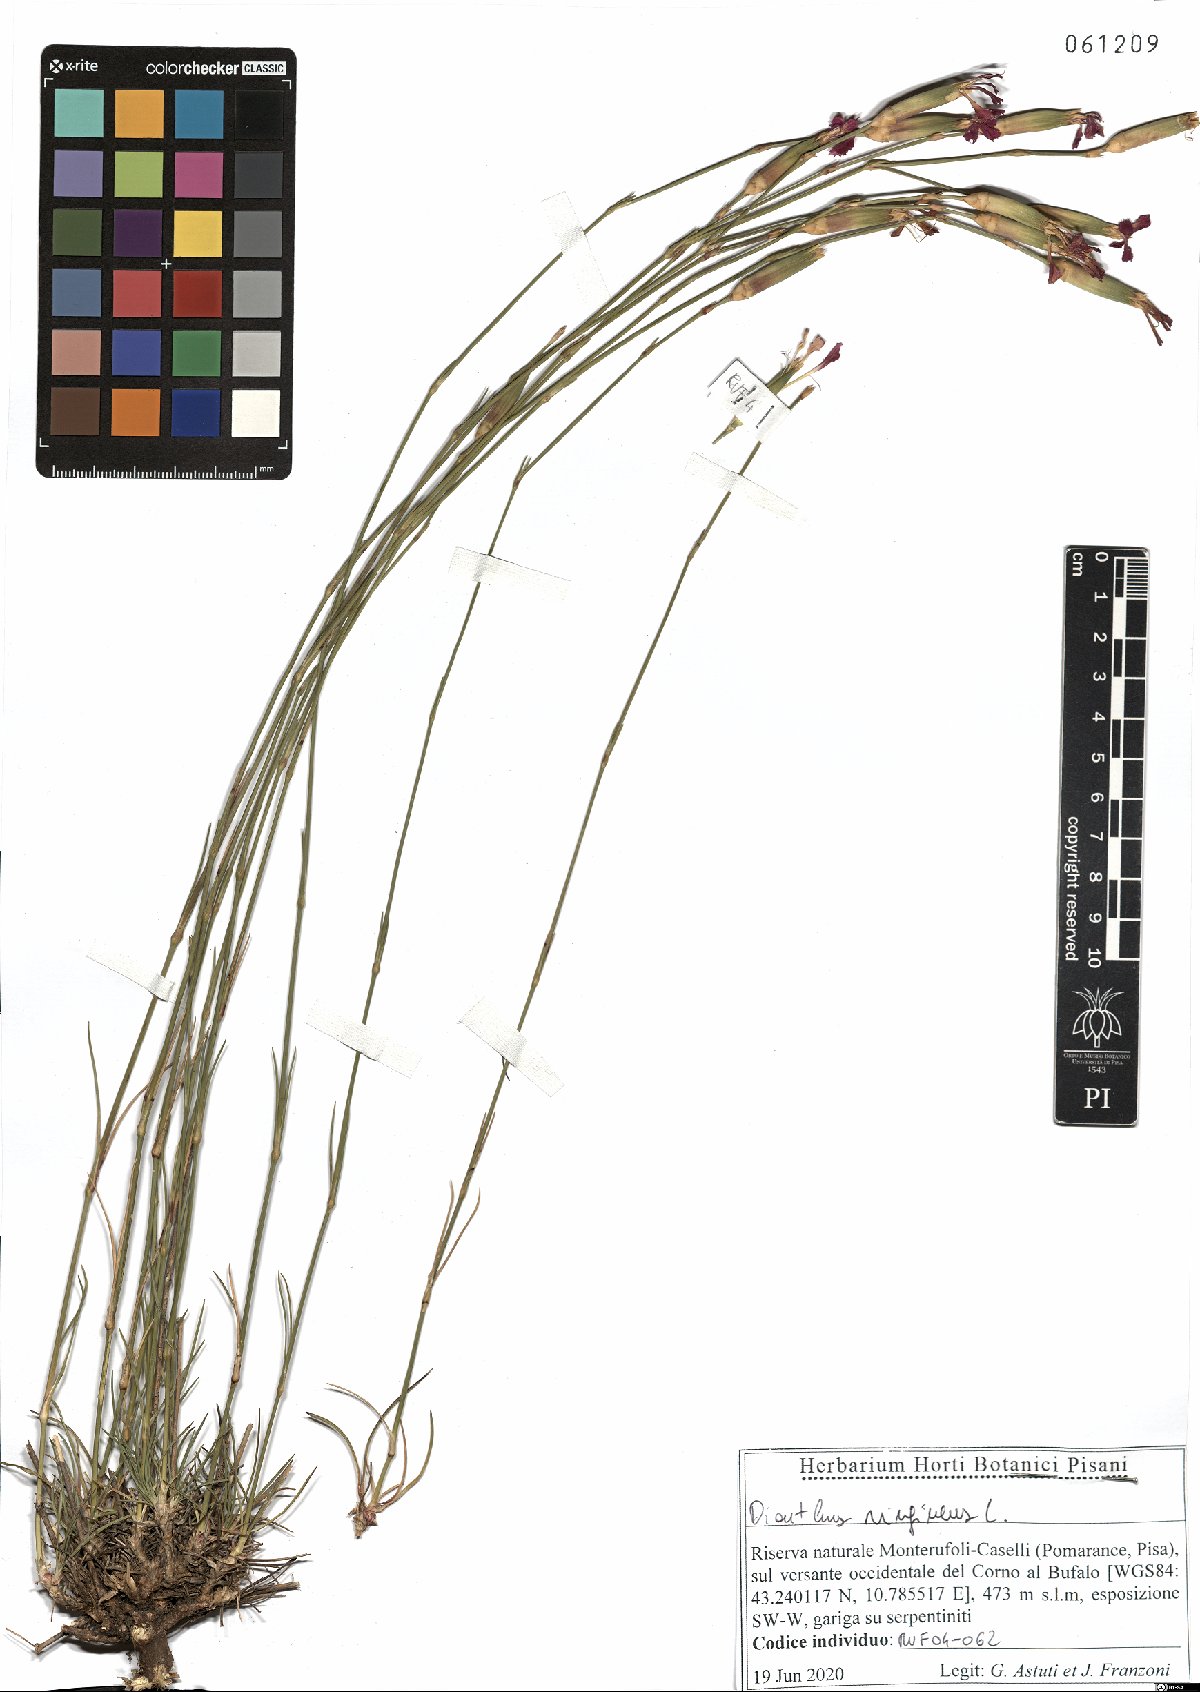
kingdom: Plantae
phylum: Tracheophyta
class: Magnoliopsida
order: Caryophyllales
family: Caryophyllaceae
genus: Dianthus
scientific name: Dianthus virgineus
